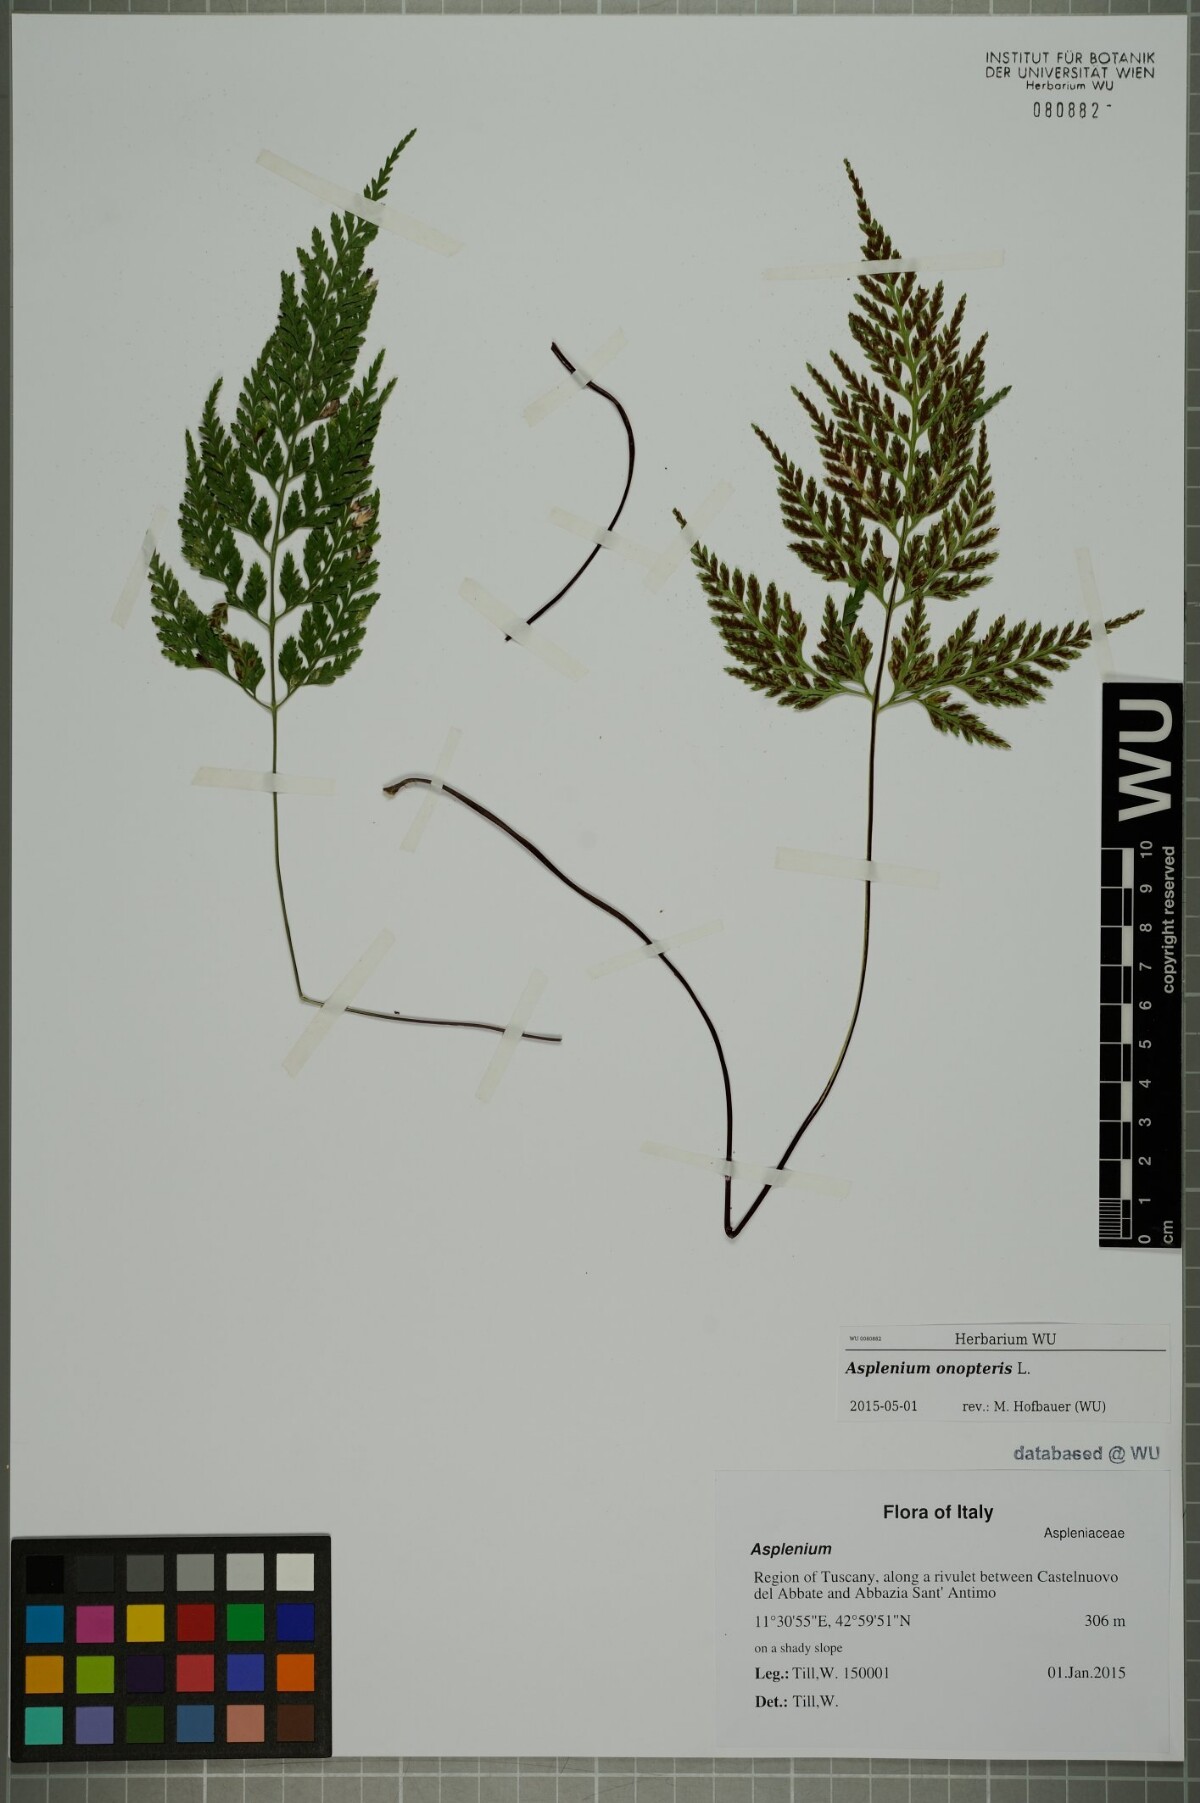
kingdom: Plantae
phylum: Tracheophyta
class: Polypodiopsida
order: Polypodiales
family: Aspleniaceae
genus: Asplenium
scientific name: Asplenium onopteris
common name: Irish spleenwort
